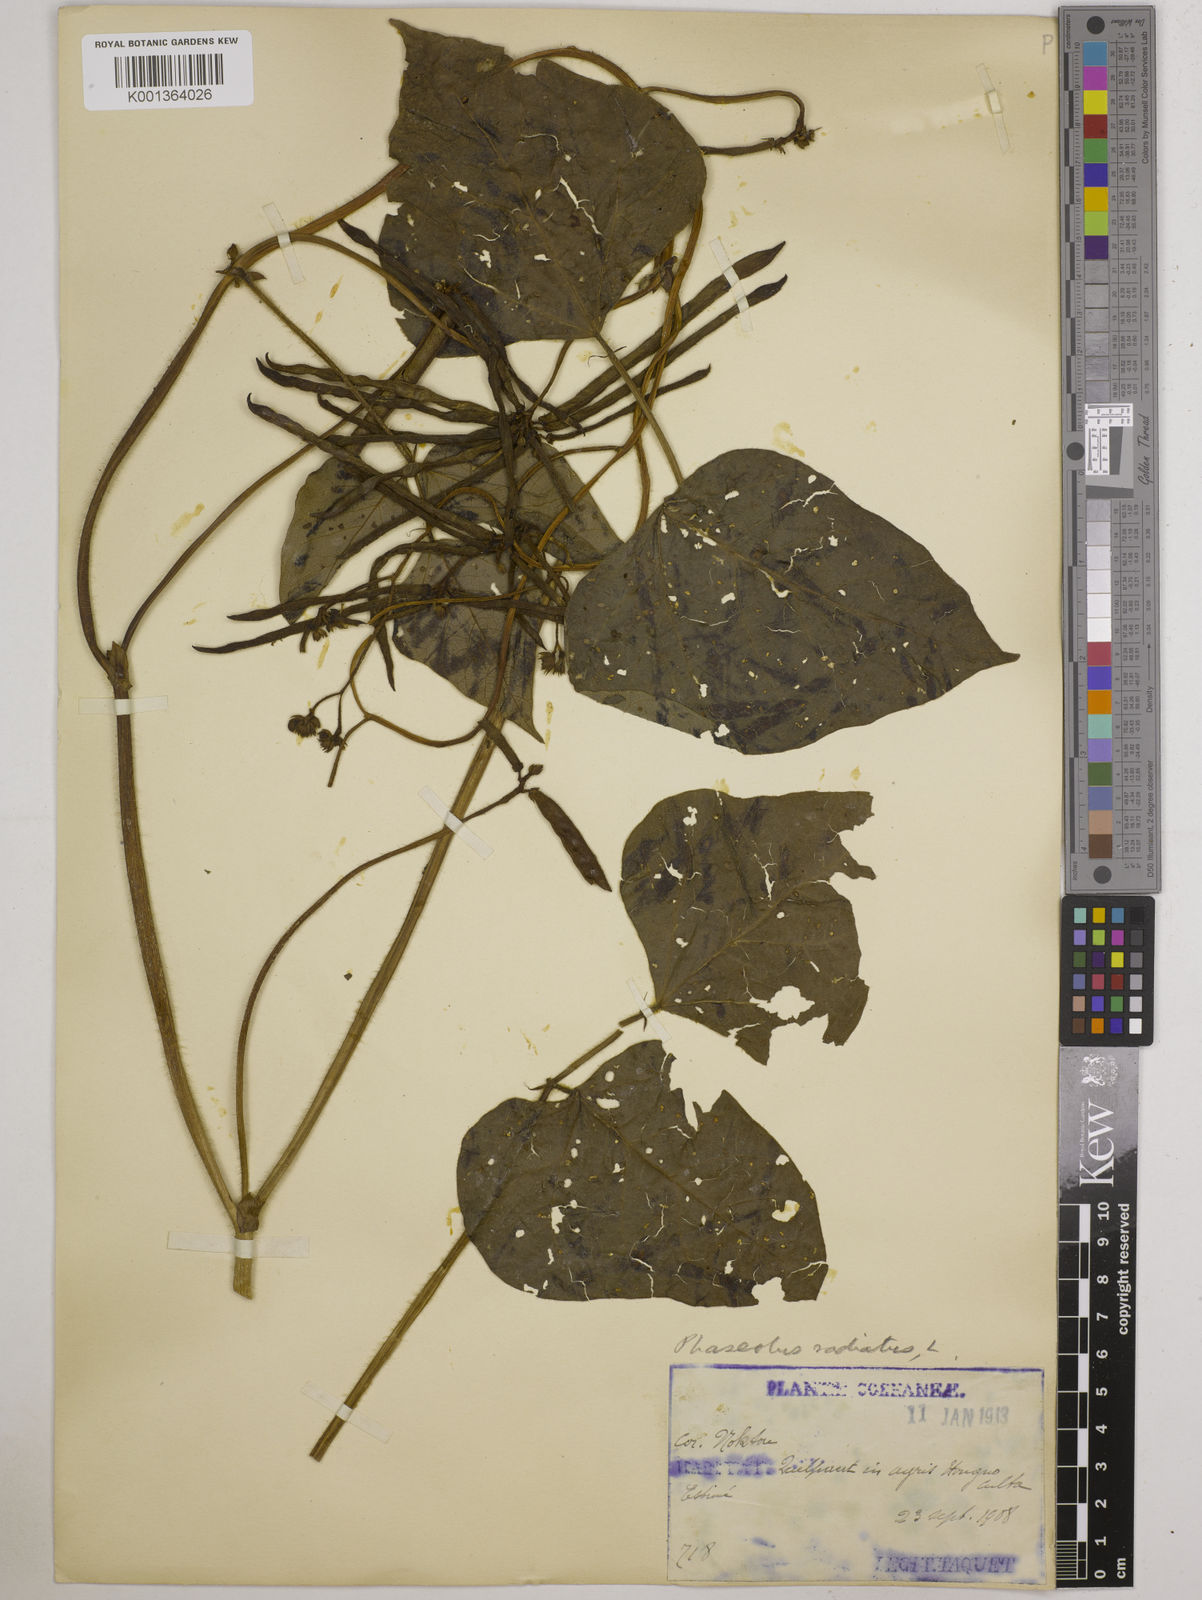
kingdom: Plantae
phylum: Tracheophyta
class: Magnoliopsida
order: Fabales
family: Fabaceae
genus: Vigna
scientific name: Vigna radiata
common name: Mung-bean
